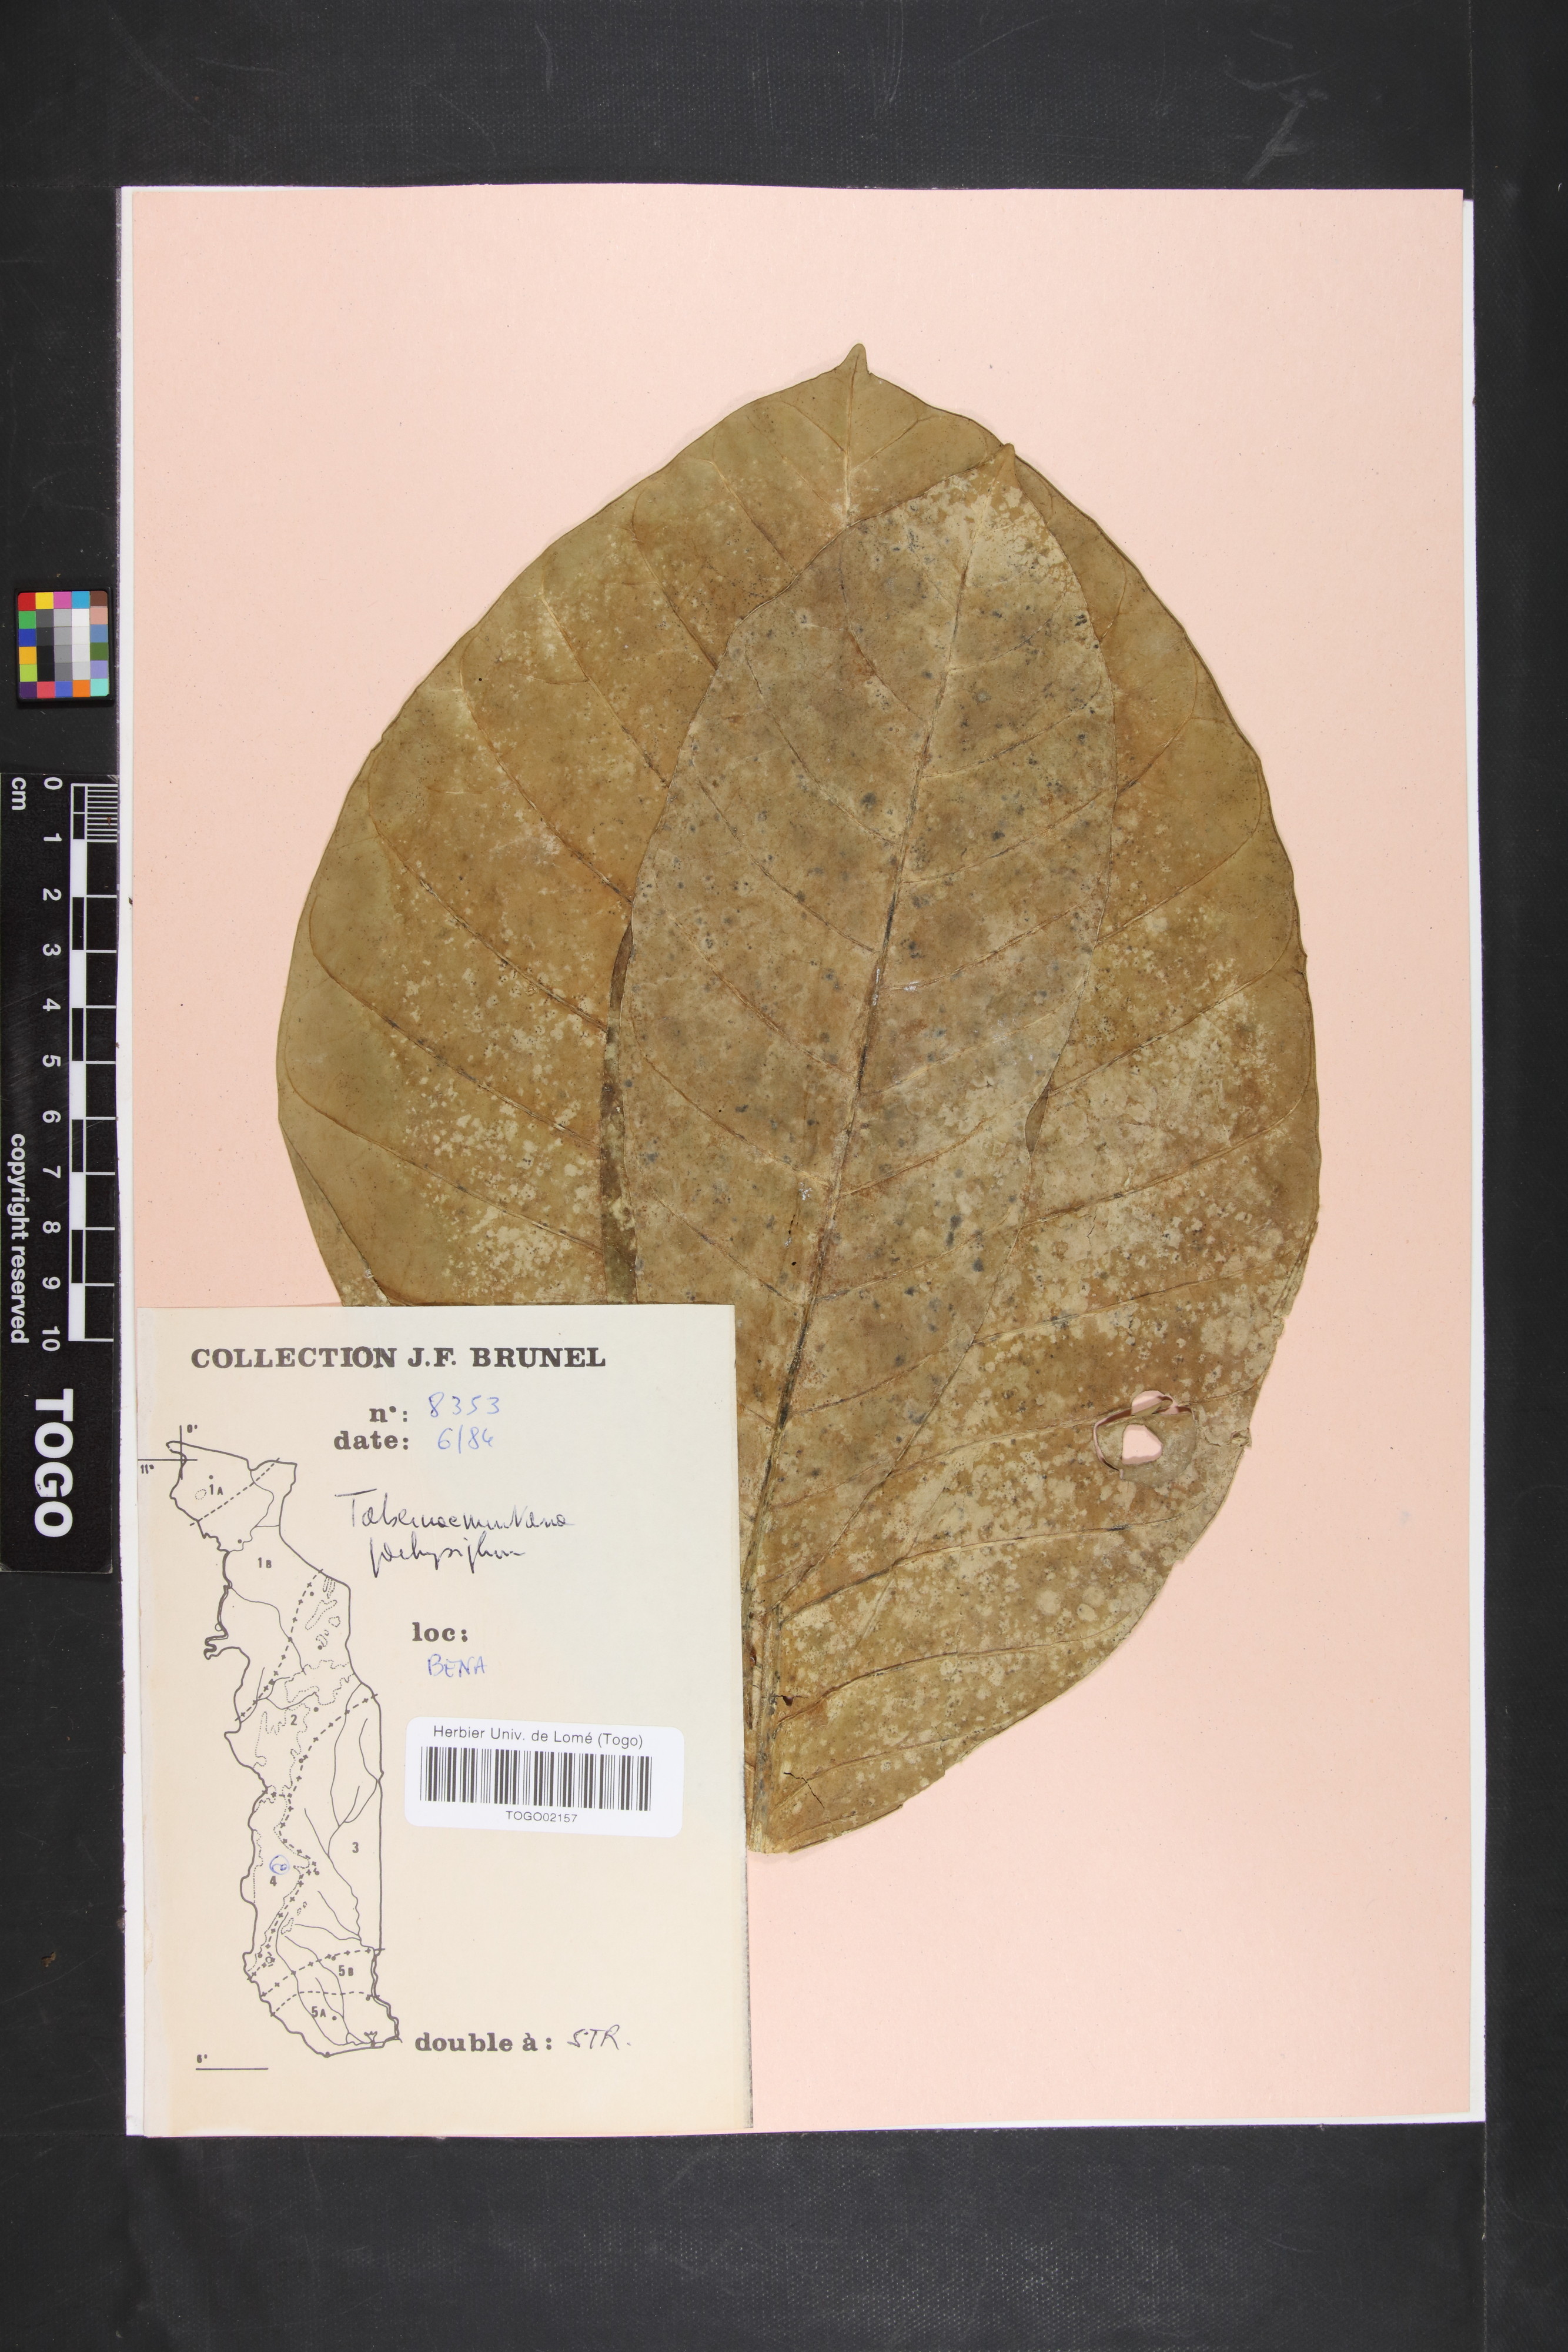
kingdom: Plantae
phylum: Tracheophyta
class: Magnoliopsida
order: Gentianales
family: Apocynaceae
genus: Tabernaemontana
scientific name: Tabernaemontana pachysiphon
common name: Giant pinwheel-flower
